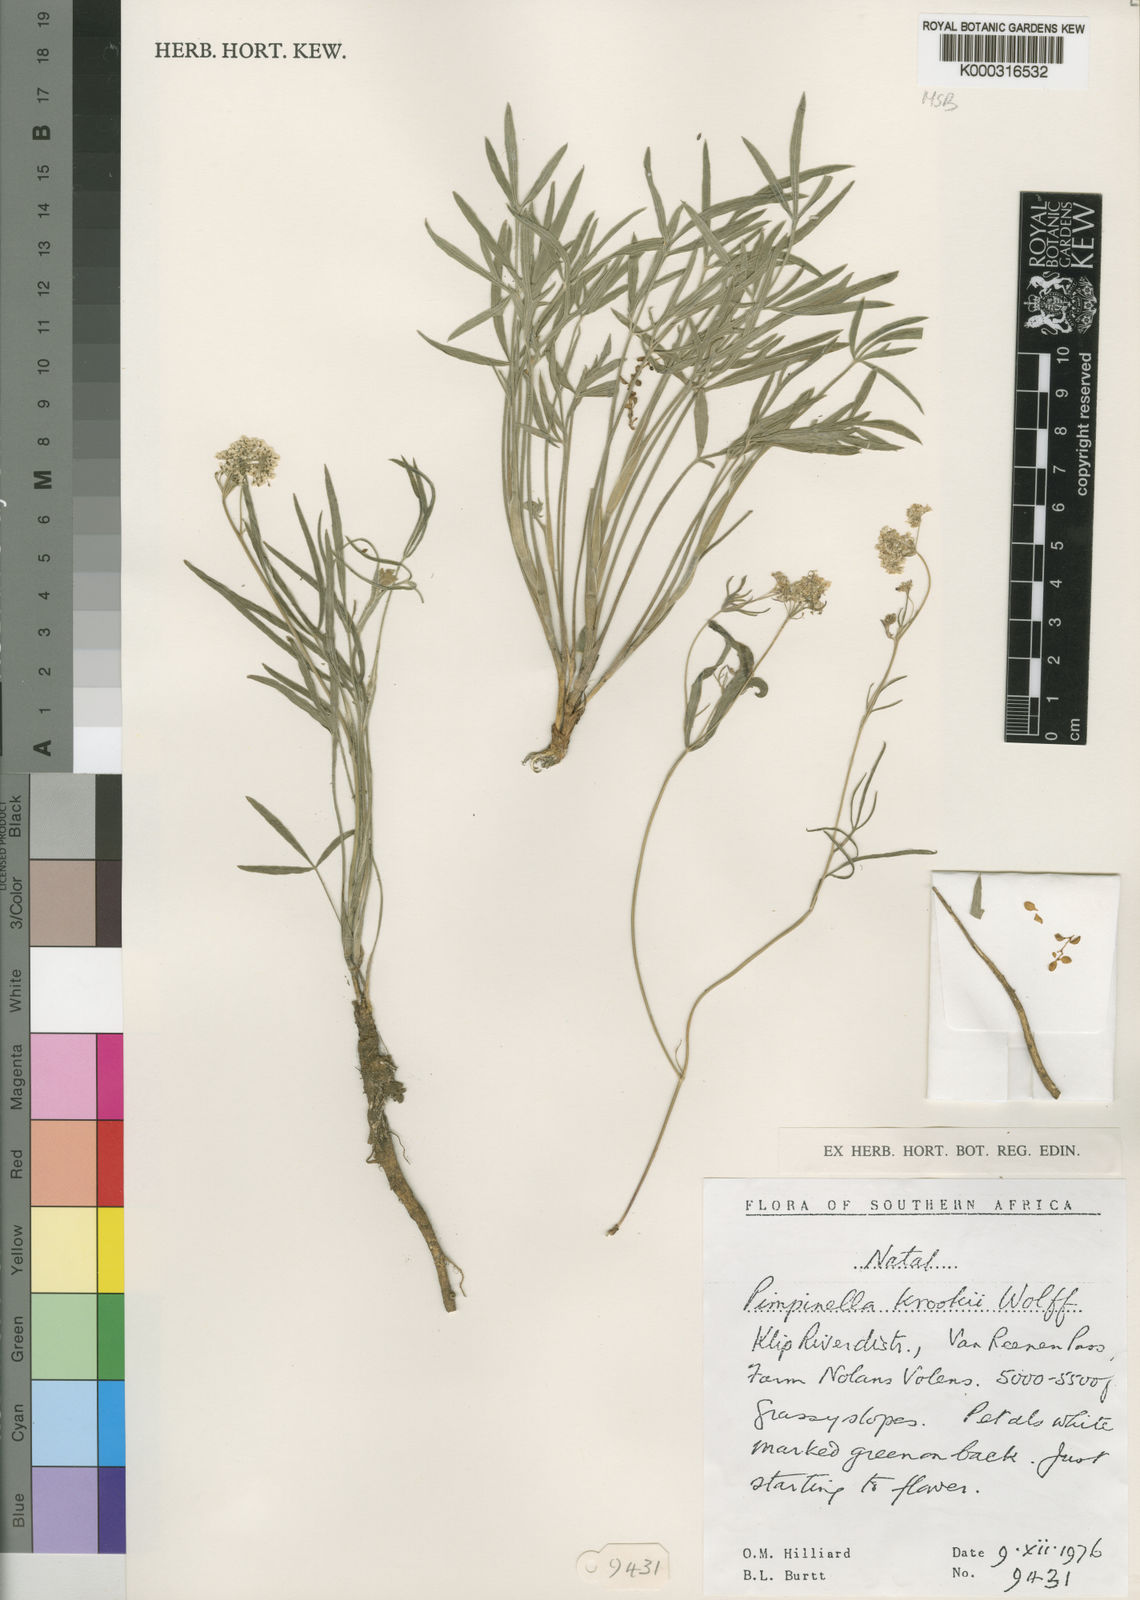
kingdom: Plantae
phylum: Tracheophyta
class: Magnoliopsida
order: Apiales
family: Apiaceae
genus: Pimpinella
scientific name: Pimpinella caffra
